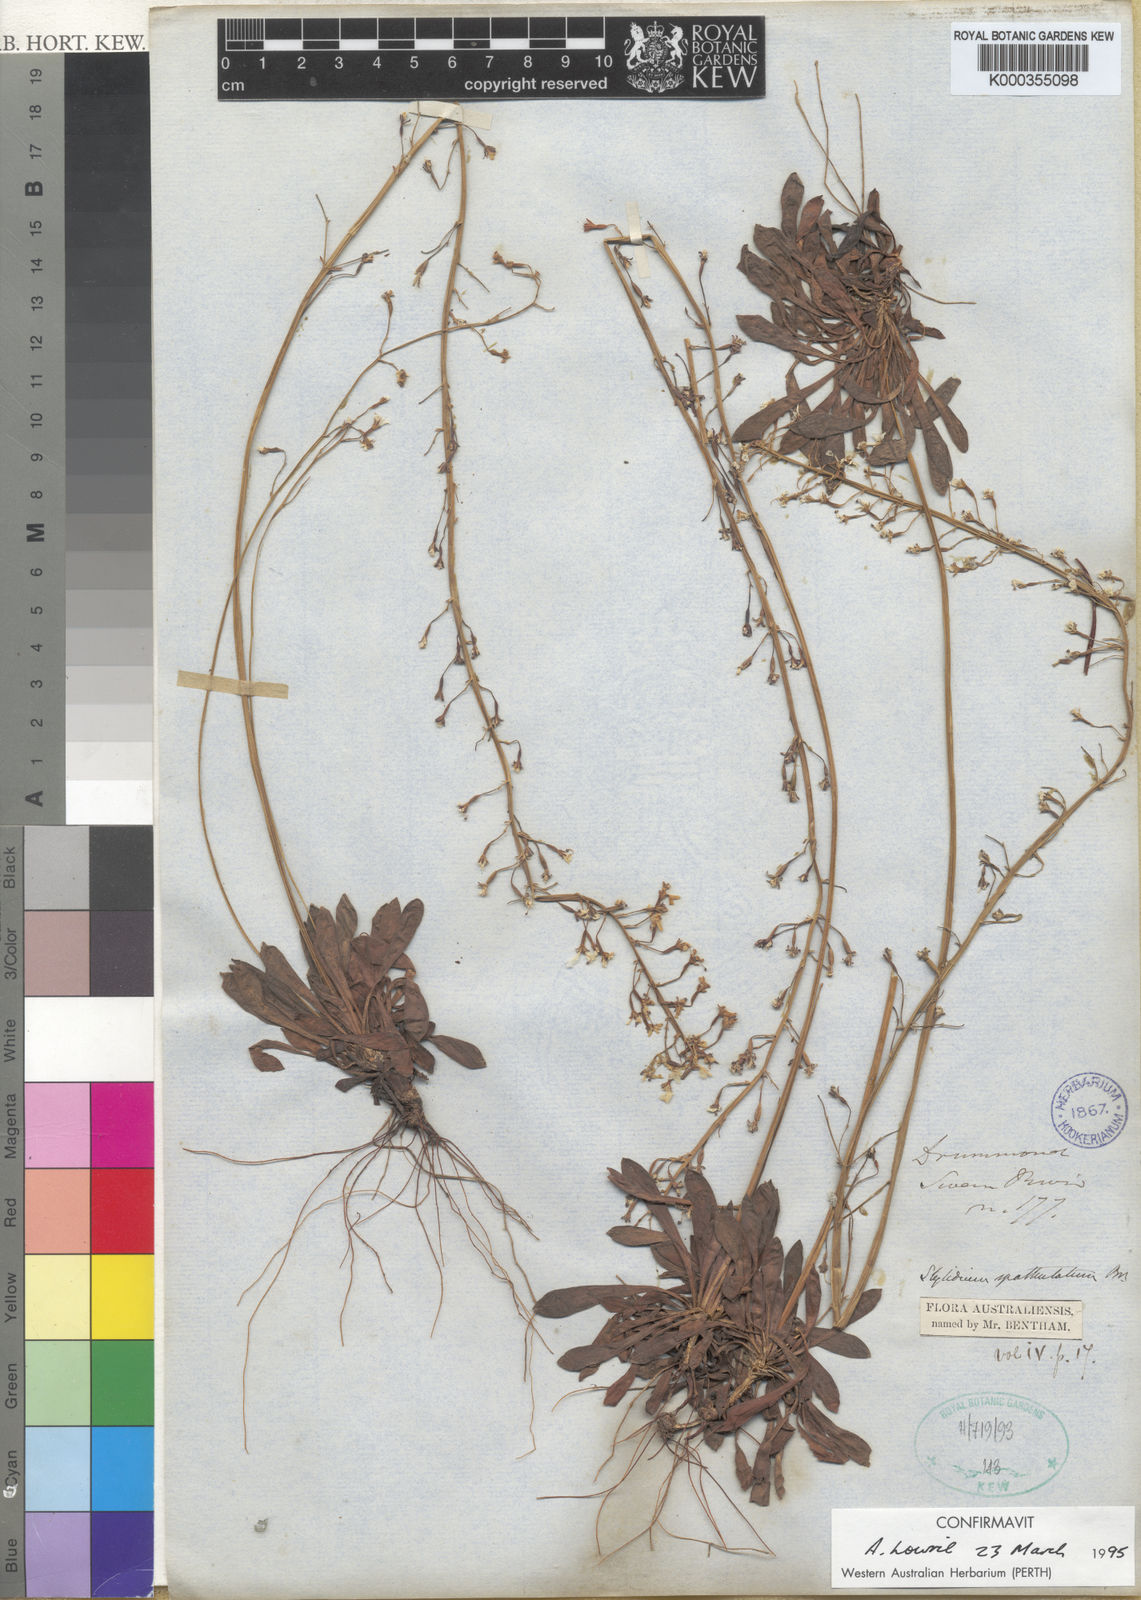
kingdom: Plantae
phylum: Tracheophyta
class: Magnoliopsida
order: Asterales
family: Stylidiaceae
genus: Stylidium
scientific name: Stylidium spathulatum
